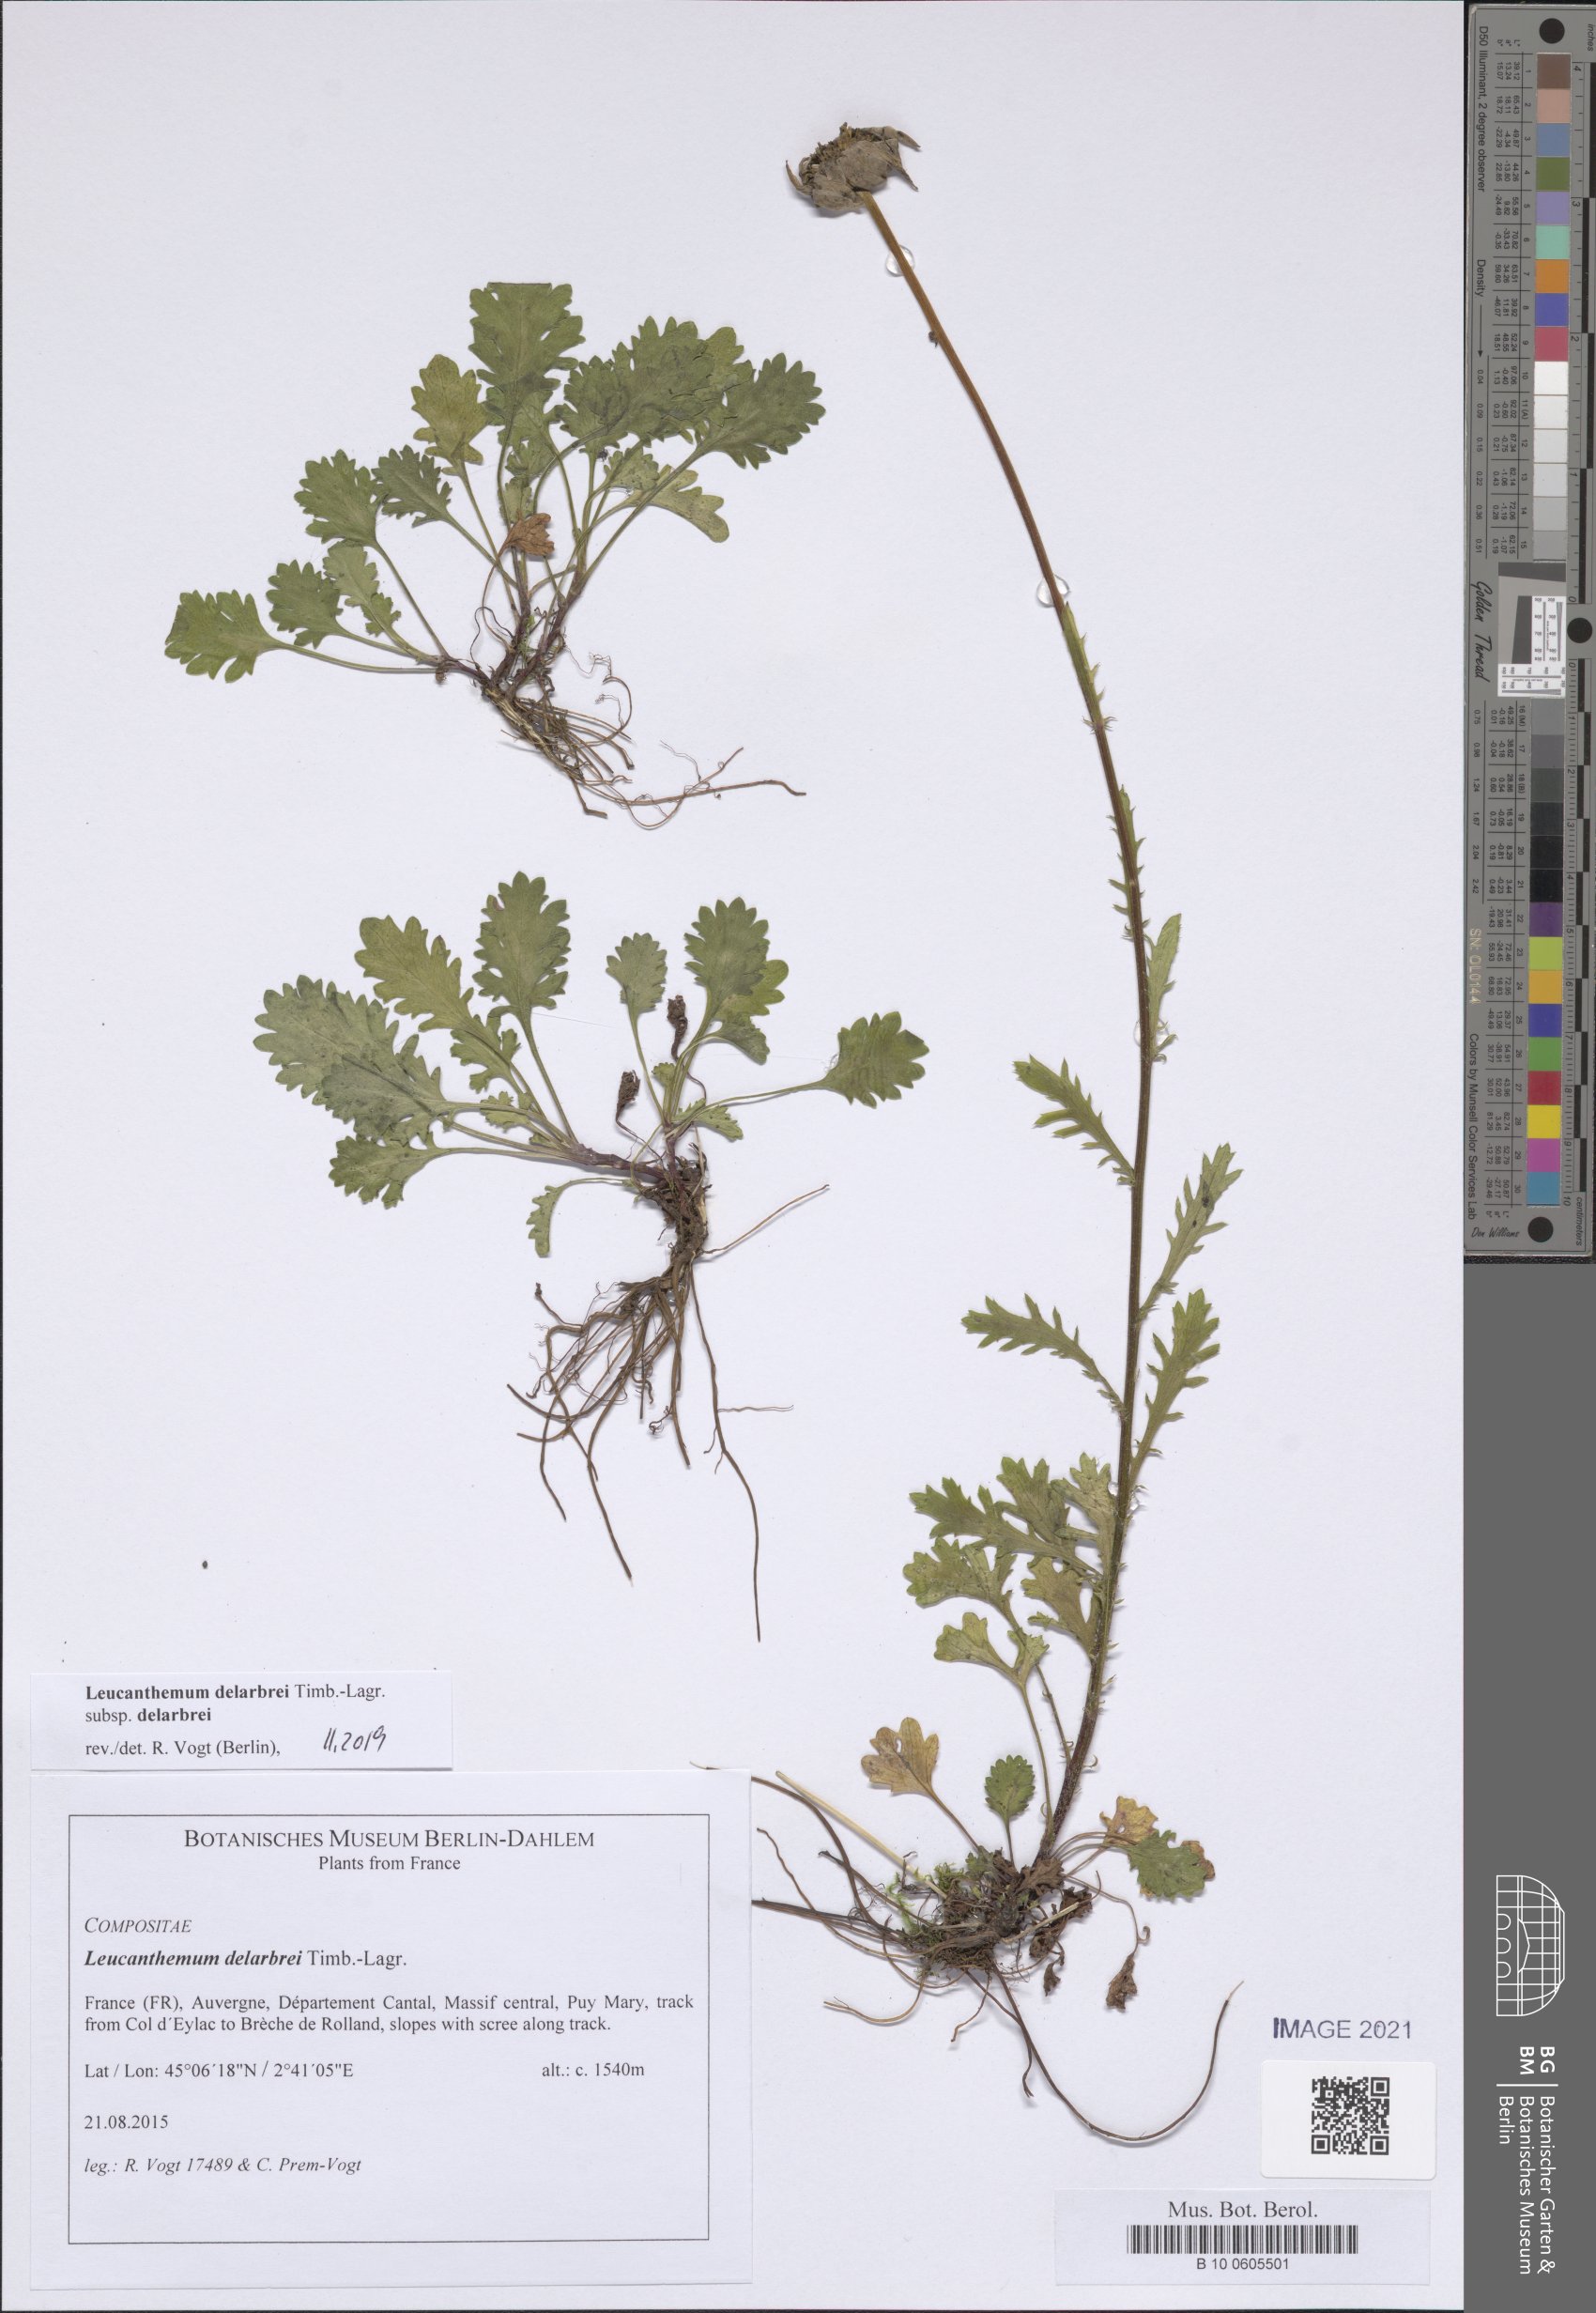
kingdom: Plantae
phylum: Tracheophyta
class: Magnoliopsida
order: Asterales
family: Asteraceae
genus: Leucanthemum
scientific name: Leucanthemum delarbrei
